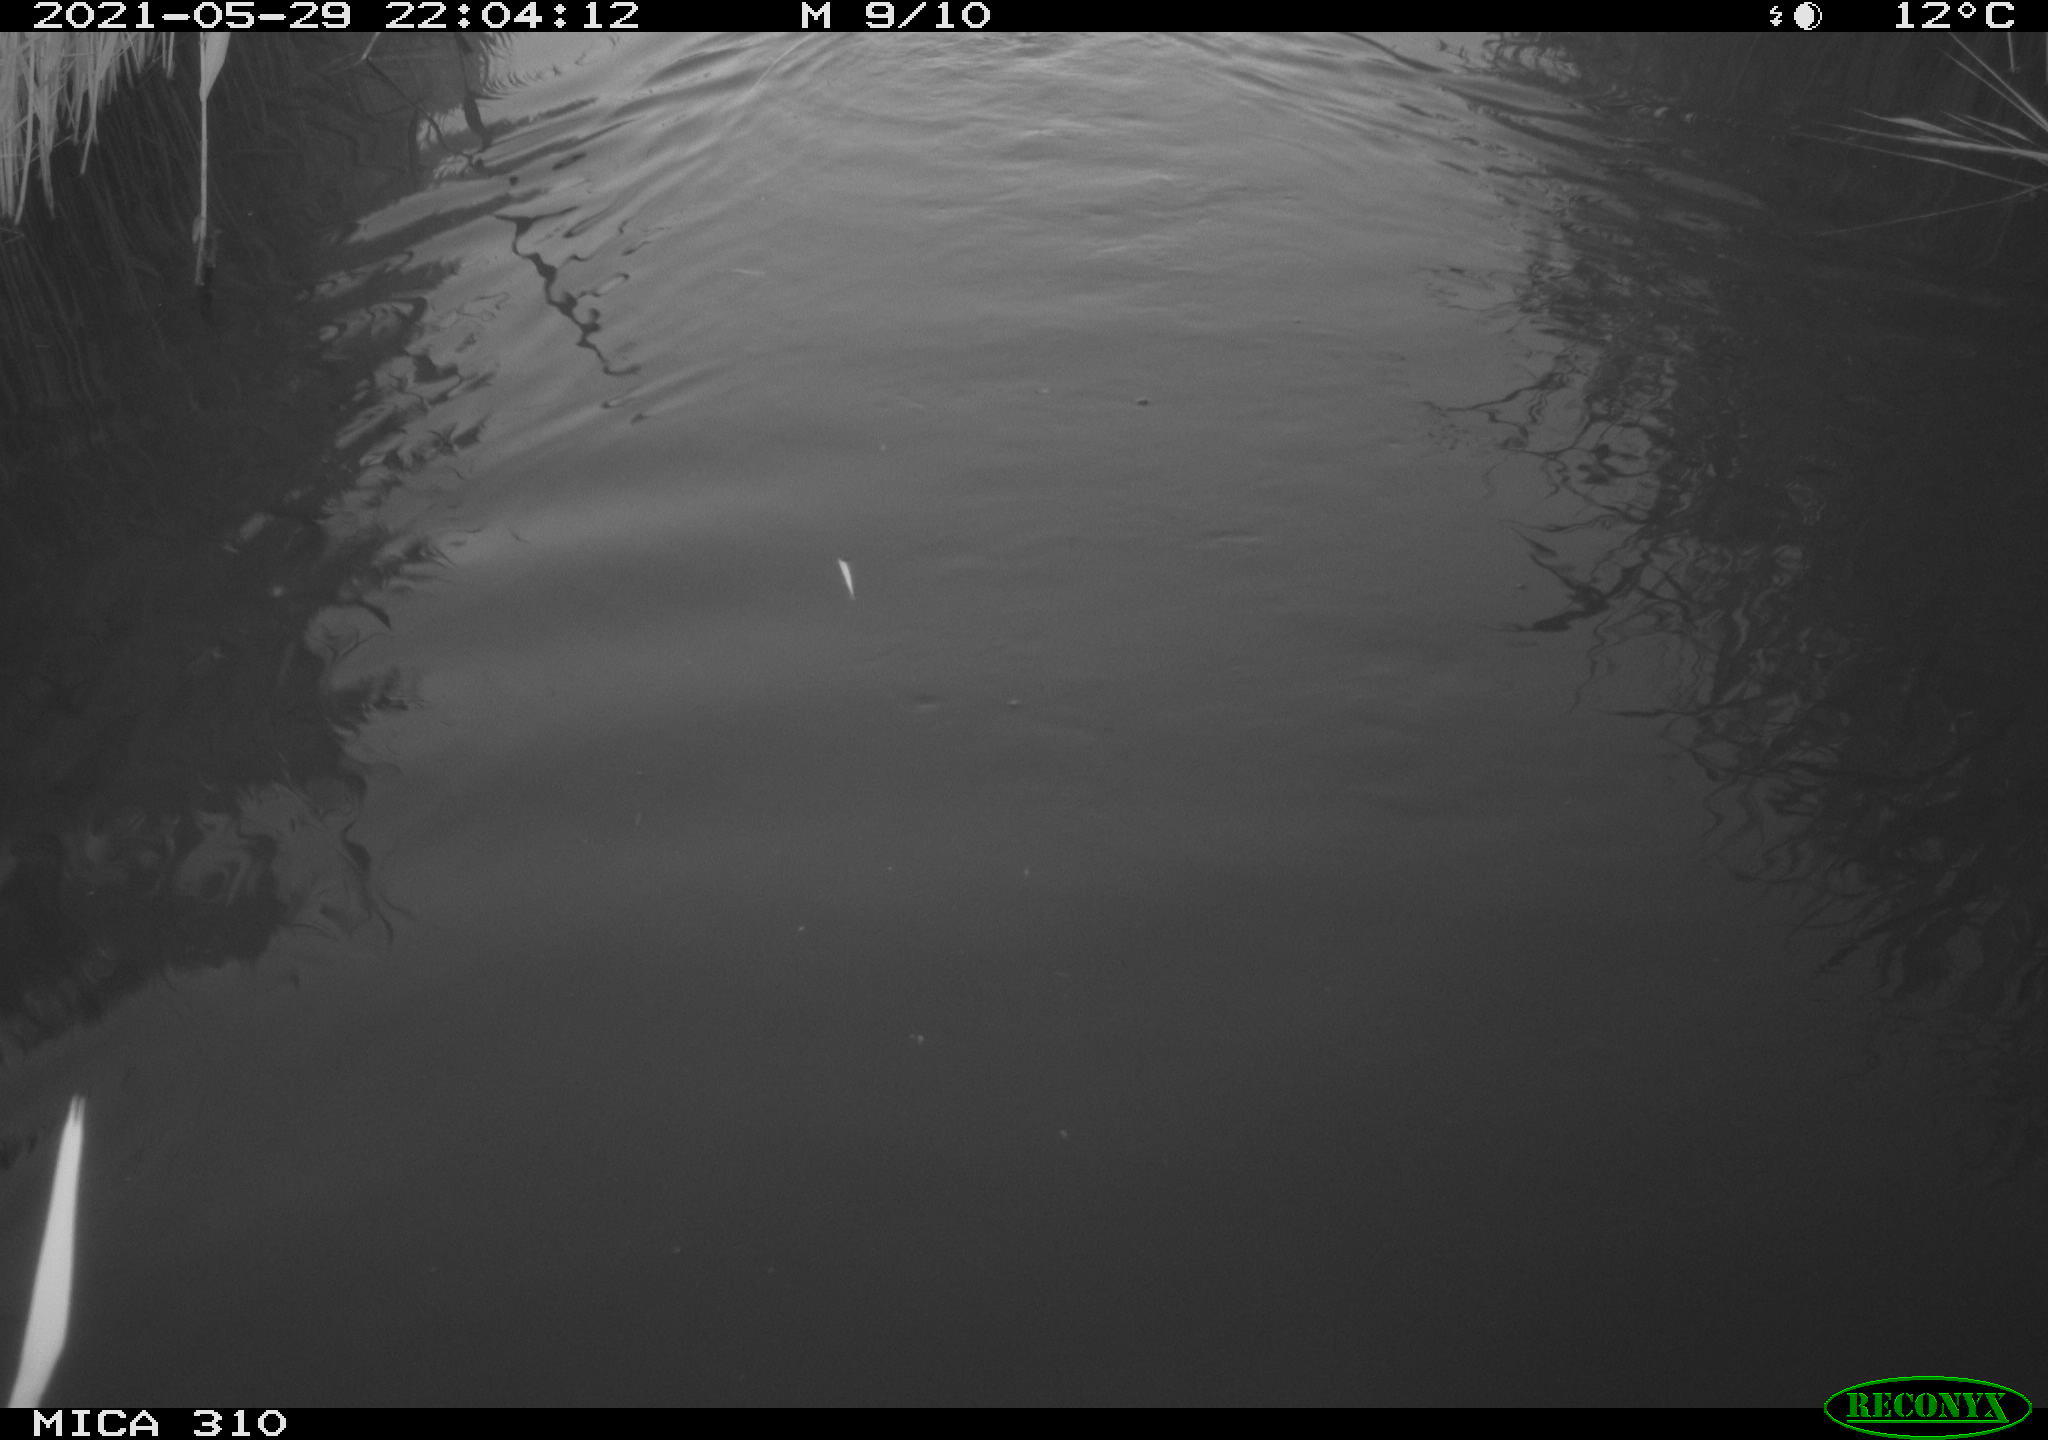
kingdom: Animalia
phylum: Chordata
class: Aves
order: Anseriformes
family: Anatidae
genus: Anas
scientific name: Anas platyrhynchos
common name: Mallard
